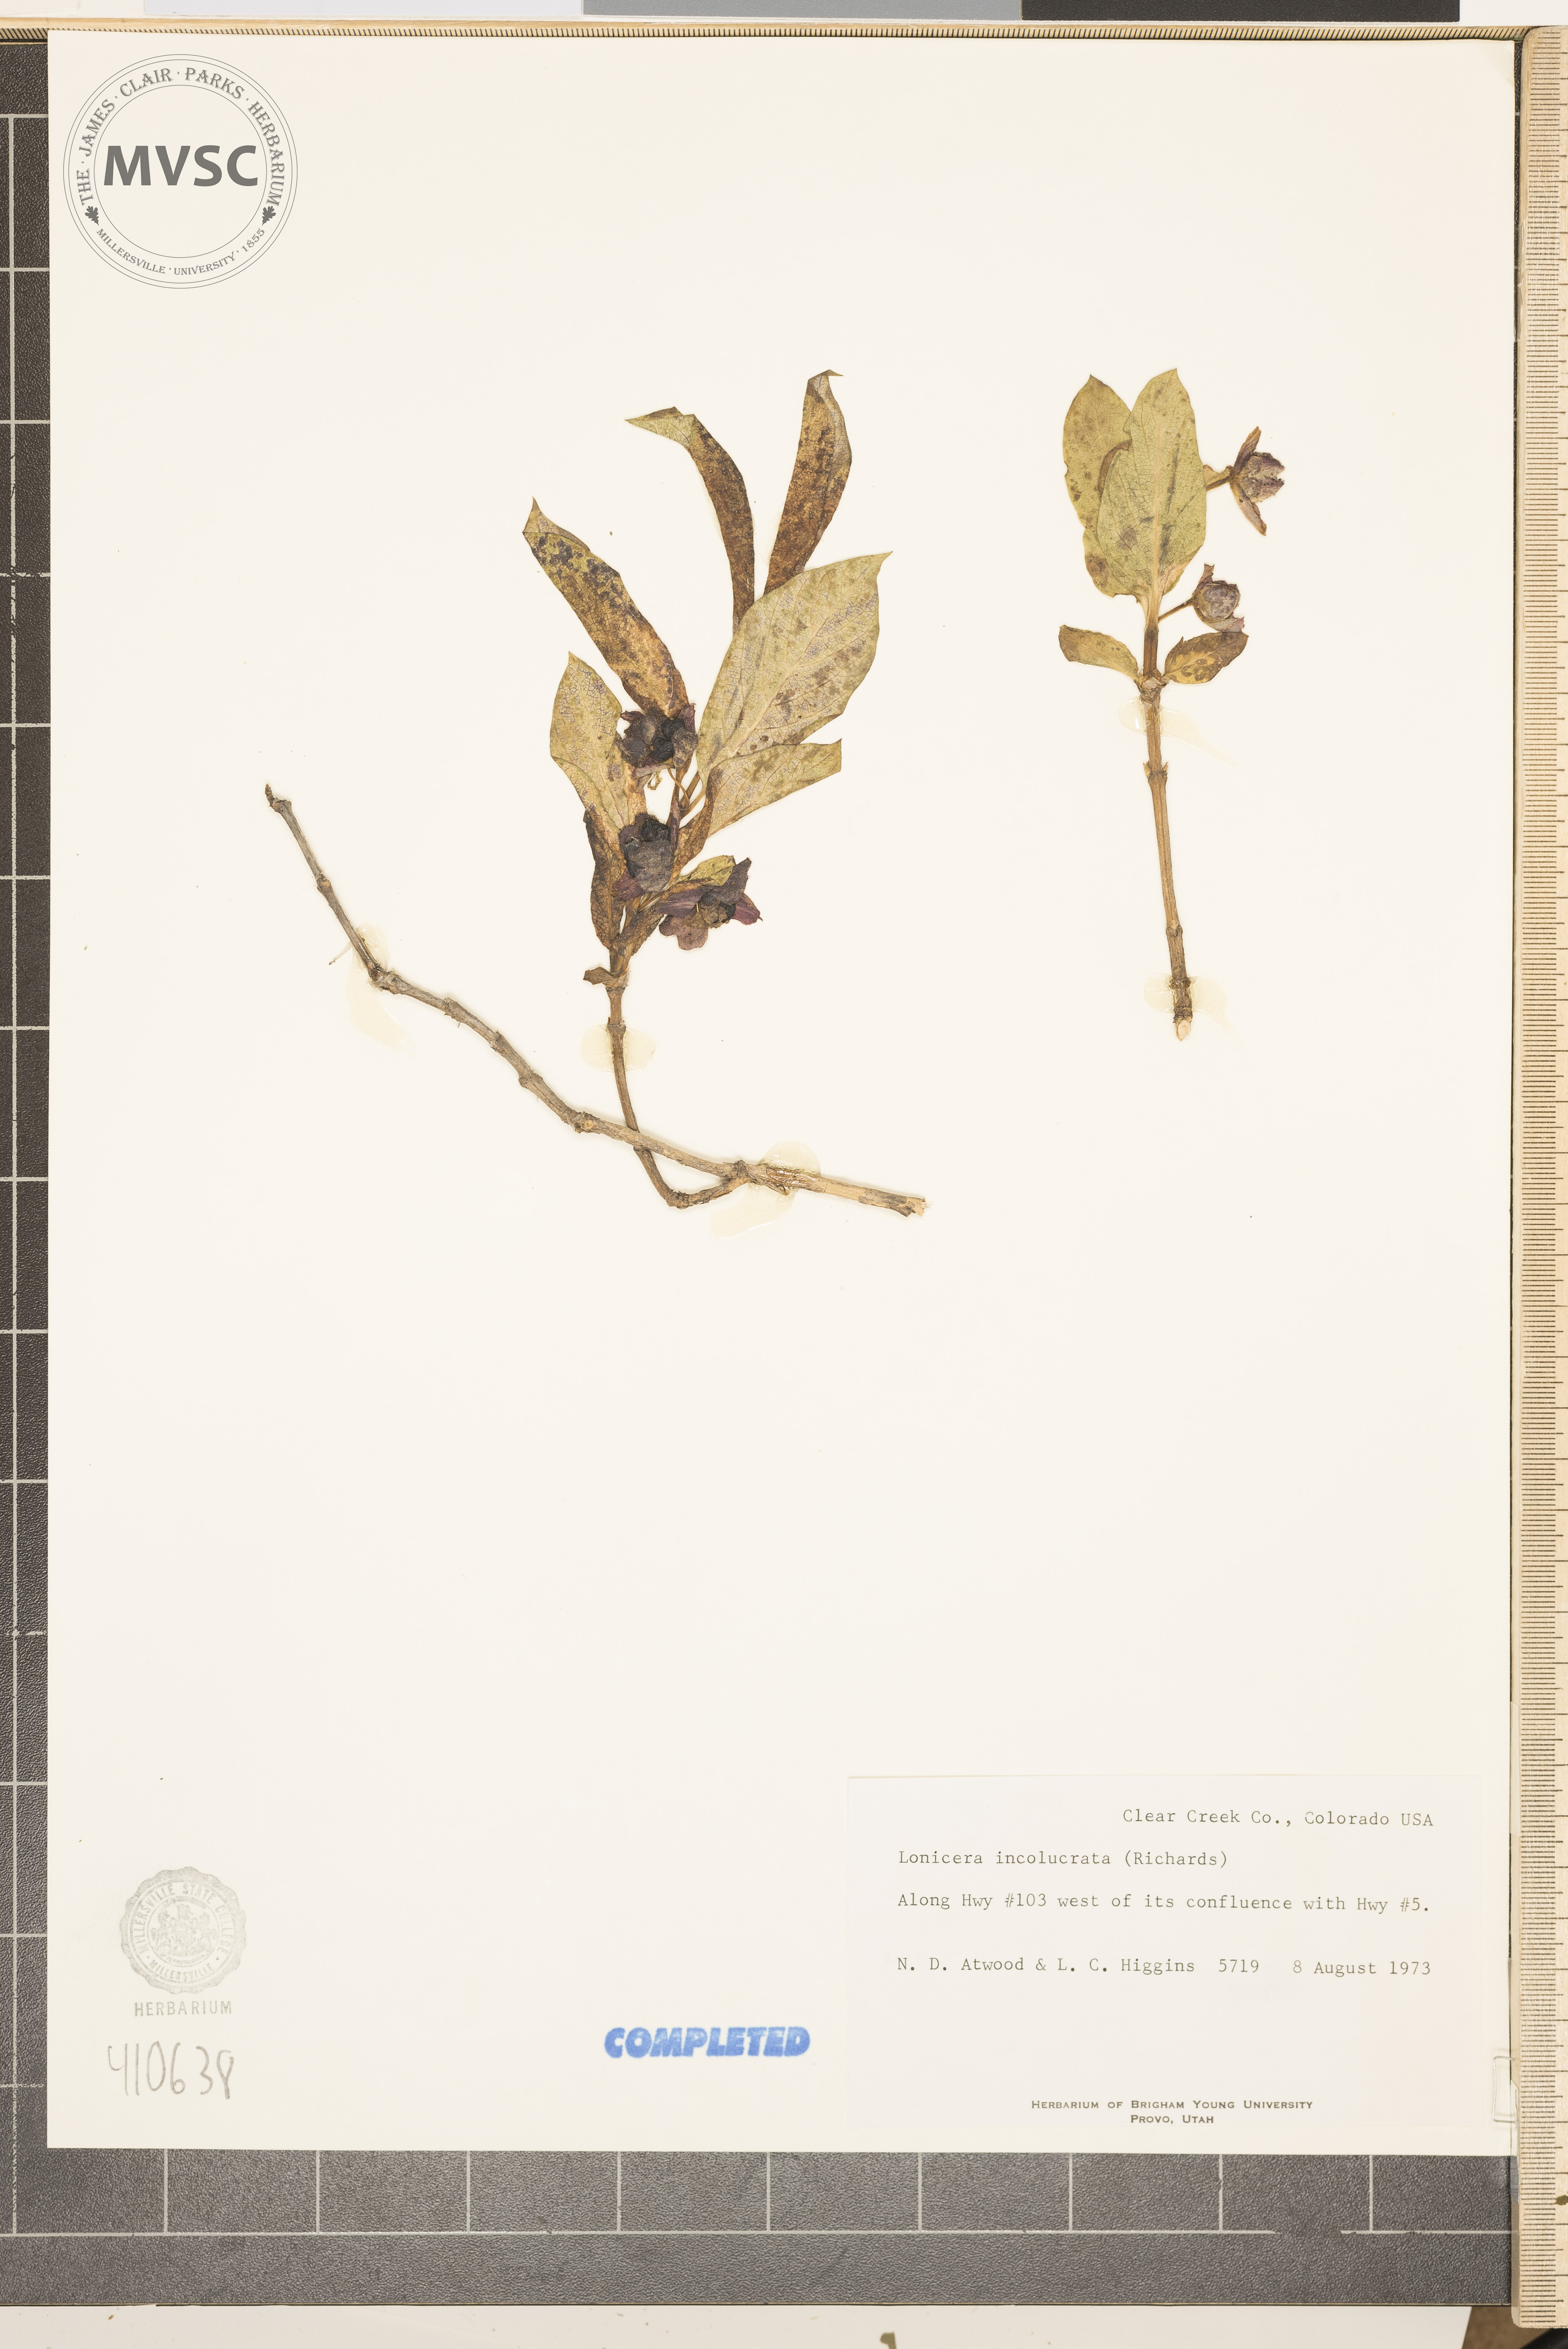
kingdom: Plantae
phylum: Tracheophyta
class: Magnoliopsida
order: Dipsacales
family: Caprifoliaceae
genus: Lonicera
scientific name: Lonicera involucrata
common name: Californian honeysuckle
